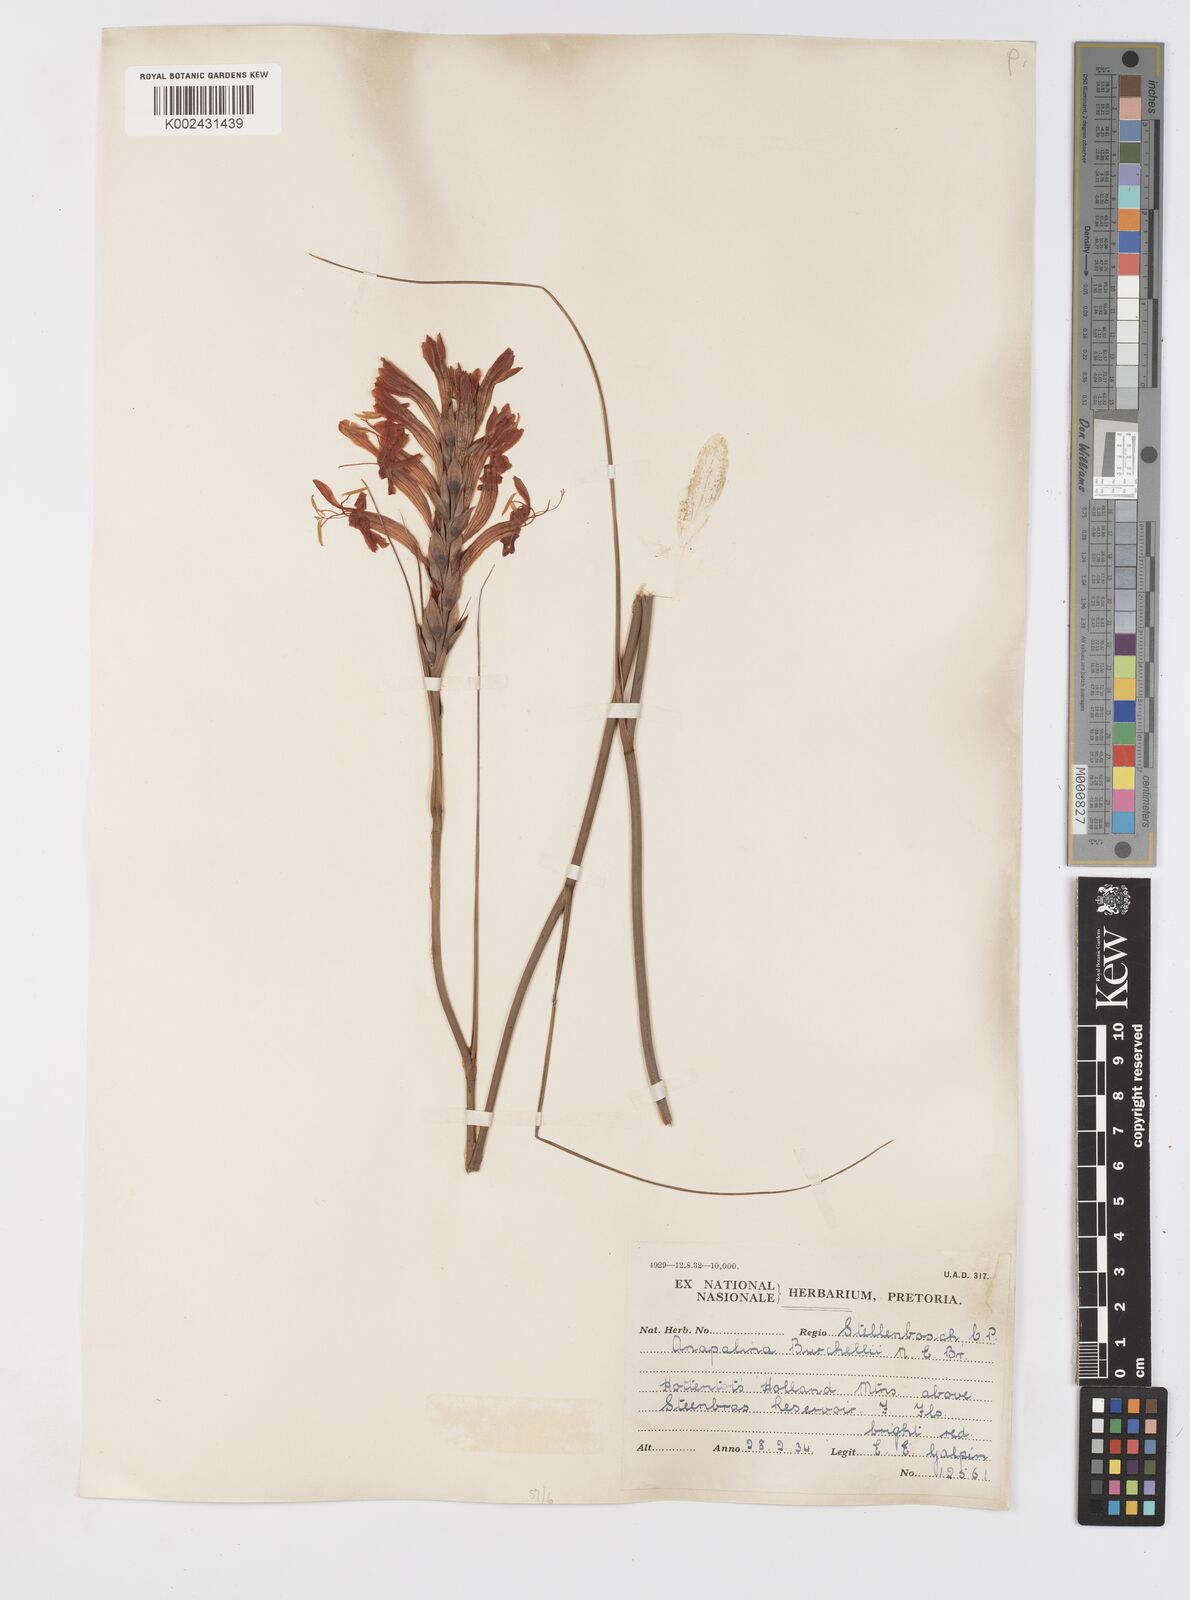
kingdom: Plantae
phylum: Tracheophyta
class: Liliopsida
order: Asparagales
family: Iridaceae
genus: Tritoniopsis
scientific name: Tritoniopsis triticea
